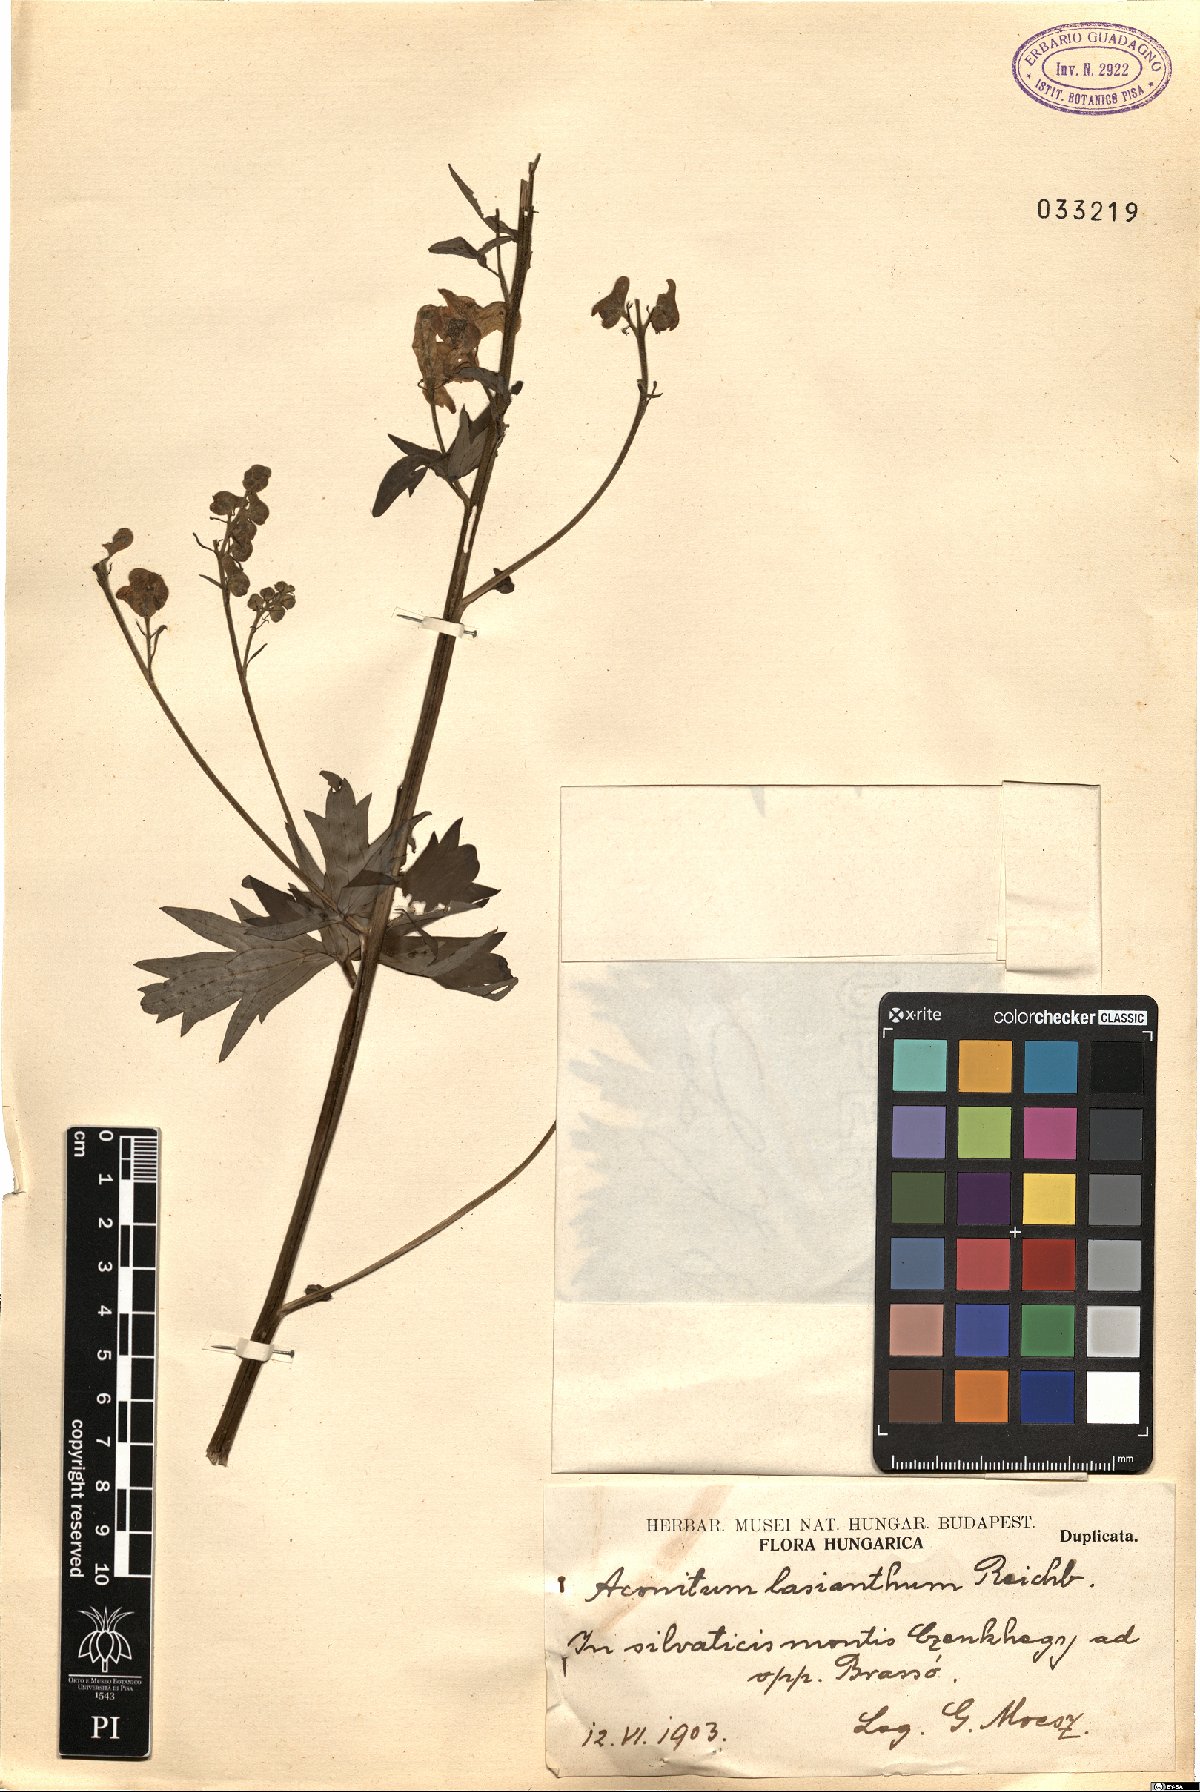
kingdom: Plantae
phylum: Tracheophyta
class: Magnoliopsida
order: Ranunculales
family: Ranunculaceae
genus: Aconitum
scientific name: Aconitum lycoctonum
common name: Wolf's-bane
